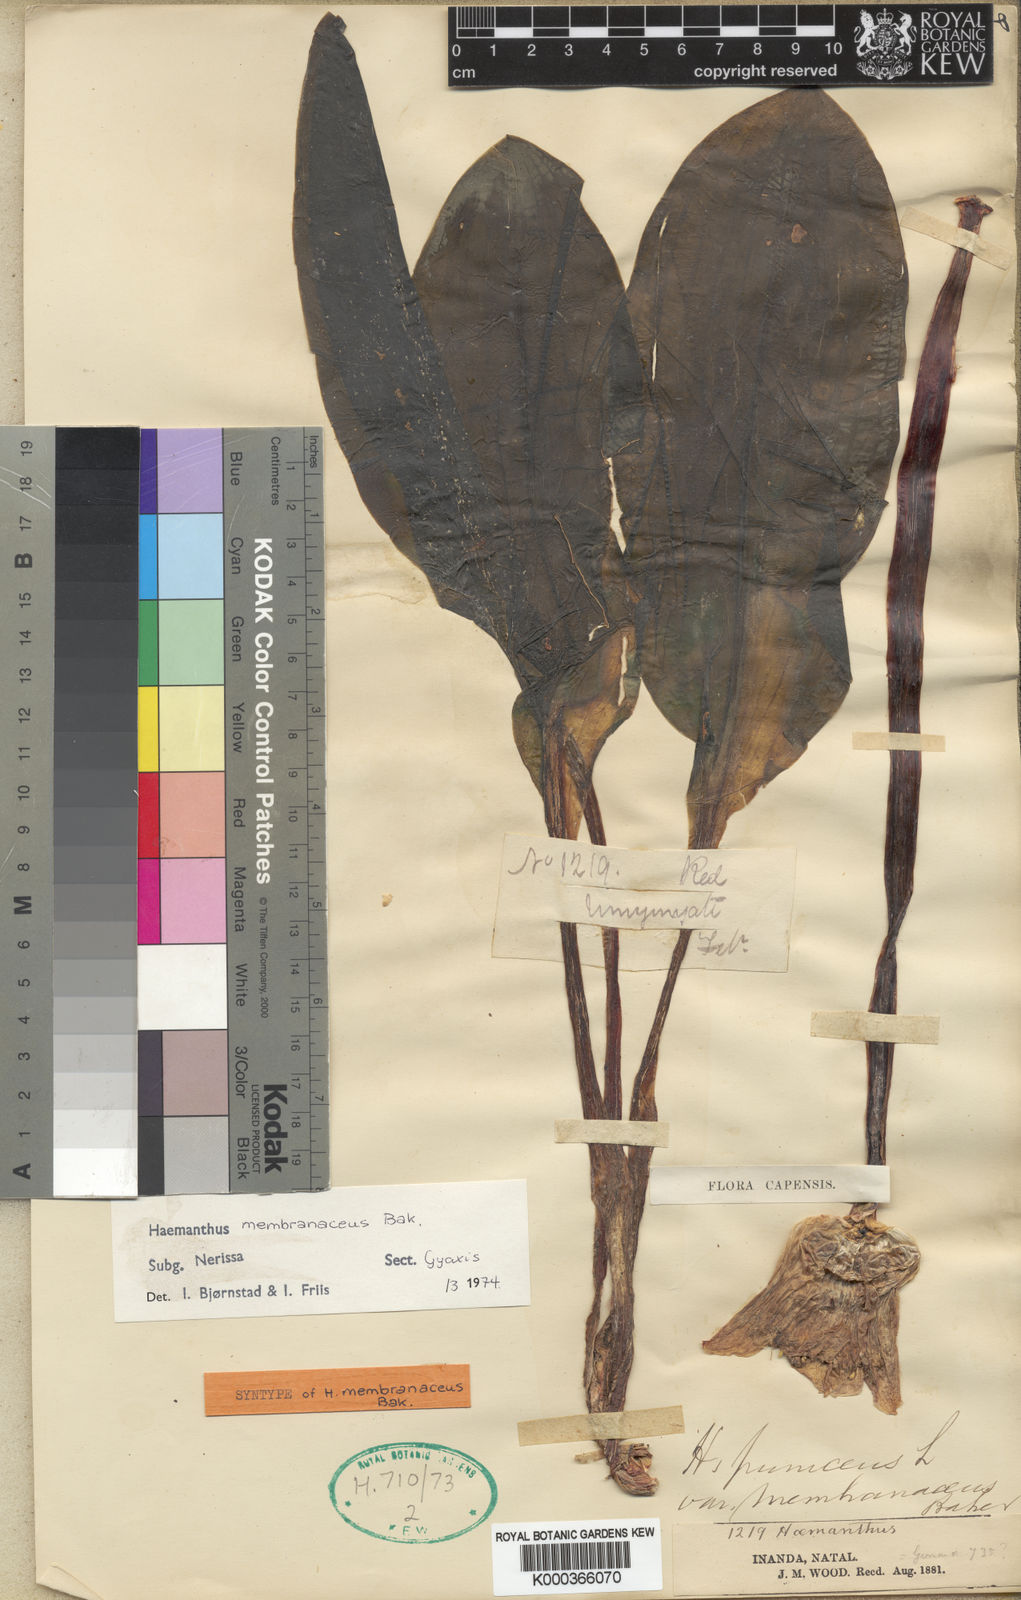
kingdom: Plantae
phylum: Tracheophyta
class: Liliopsida
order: Asparagales
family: Amaryllidaceae
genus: Scadoxus
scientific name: Scadoxus membranaceus
